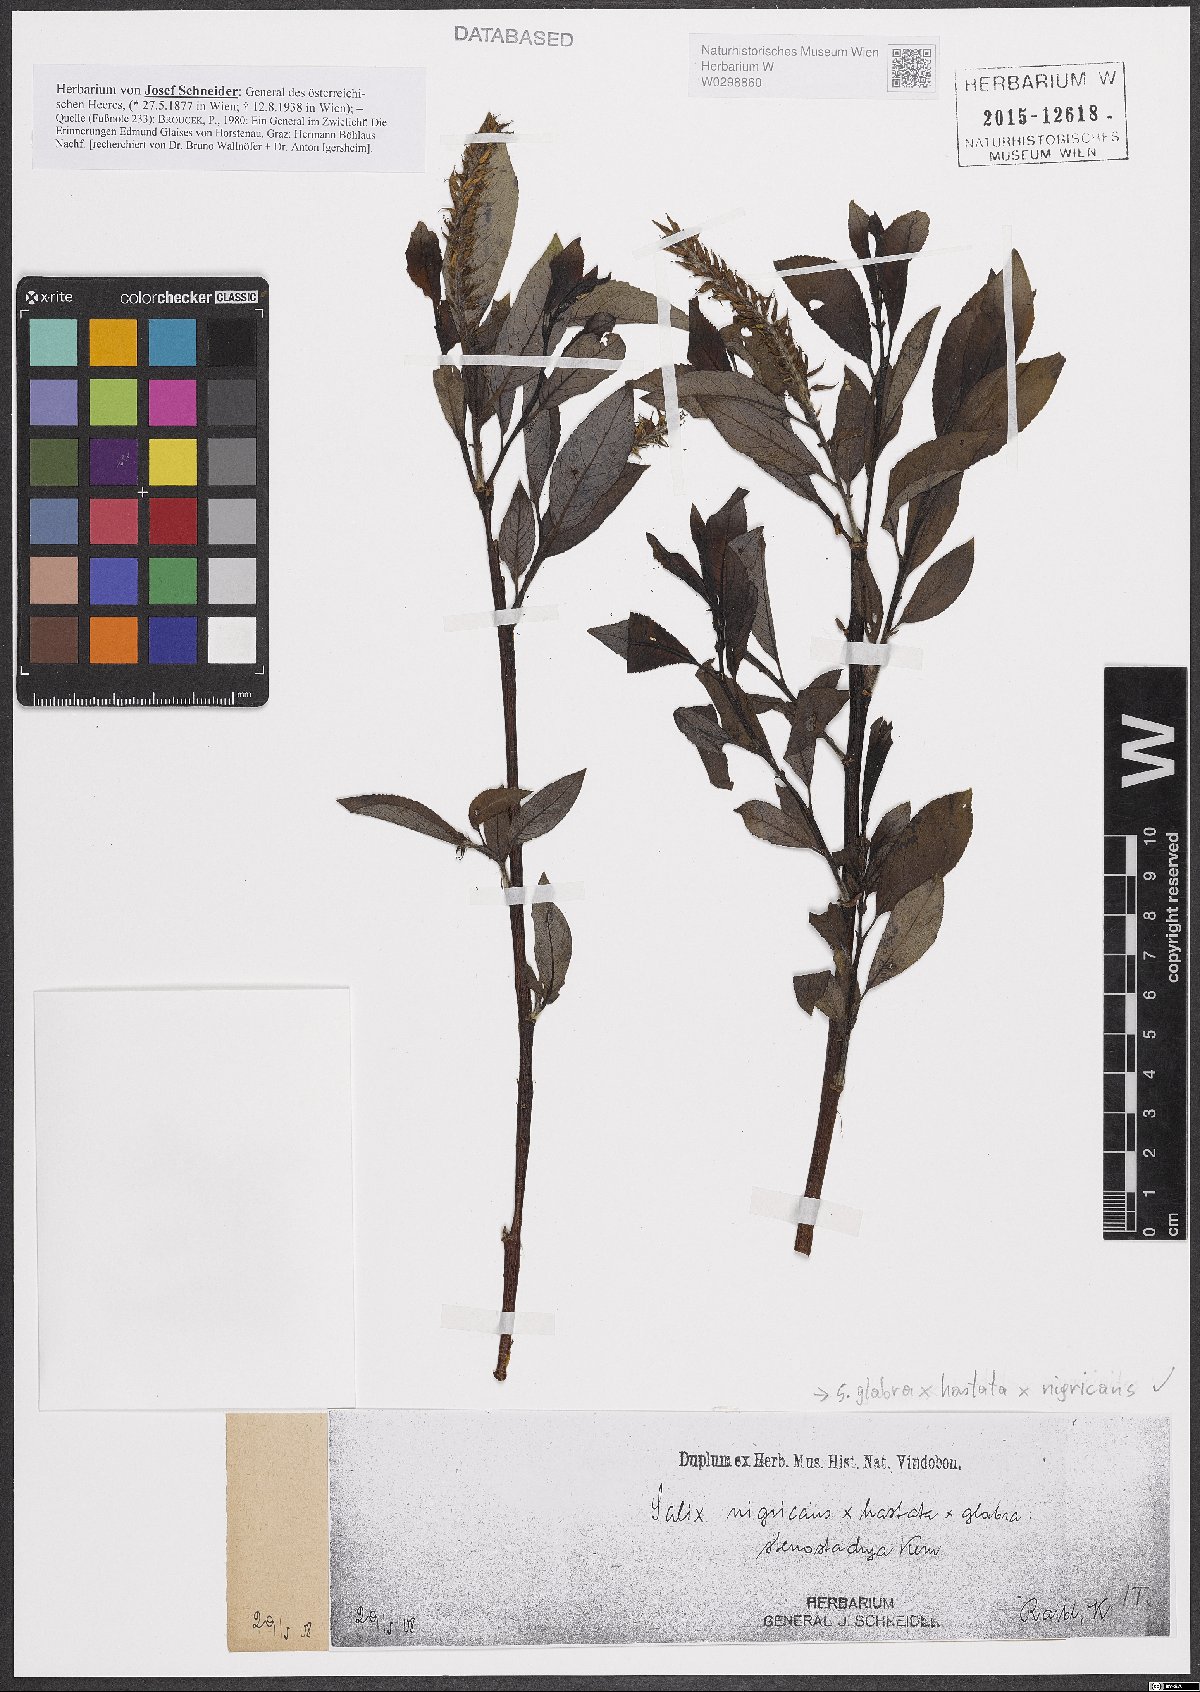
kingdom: Plantae
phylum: Tracheophyta
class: Magnoliopsida
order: Malpighiales
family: Salicaceae
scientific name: Salicaceae
